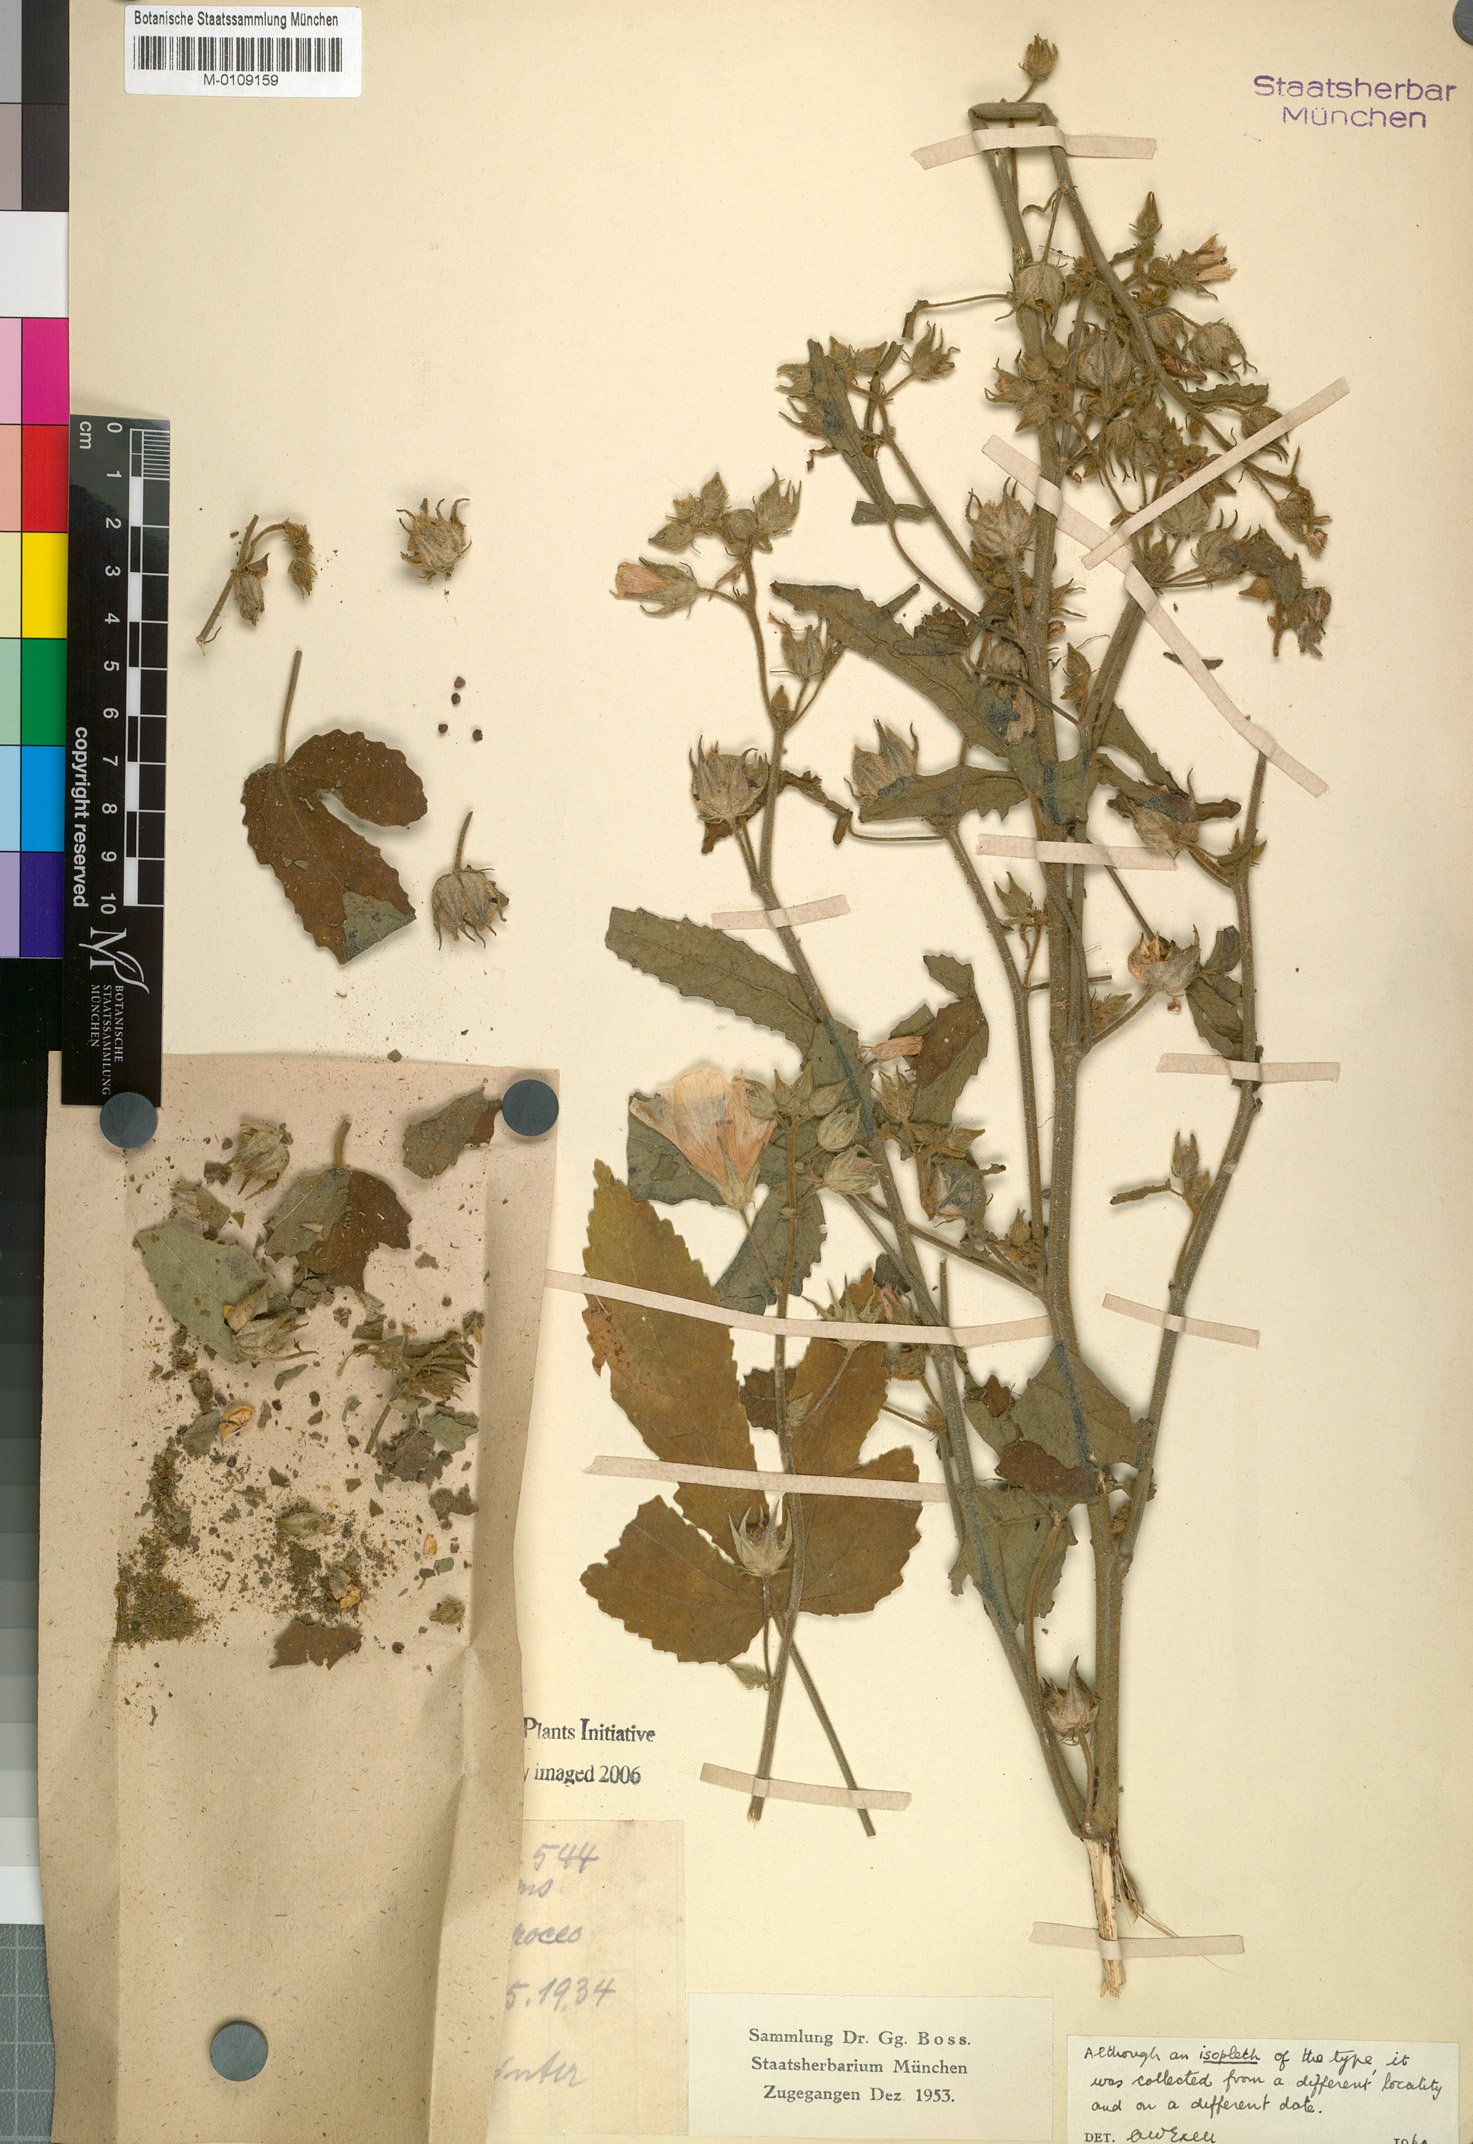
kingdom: Plantae
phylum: Tracheophyta
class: Magnoliopsida
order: Malvales
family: Malvaceae
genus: Hibiscus
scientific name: Hibiscus upingtoniae
